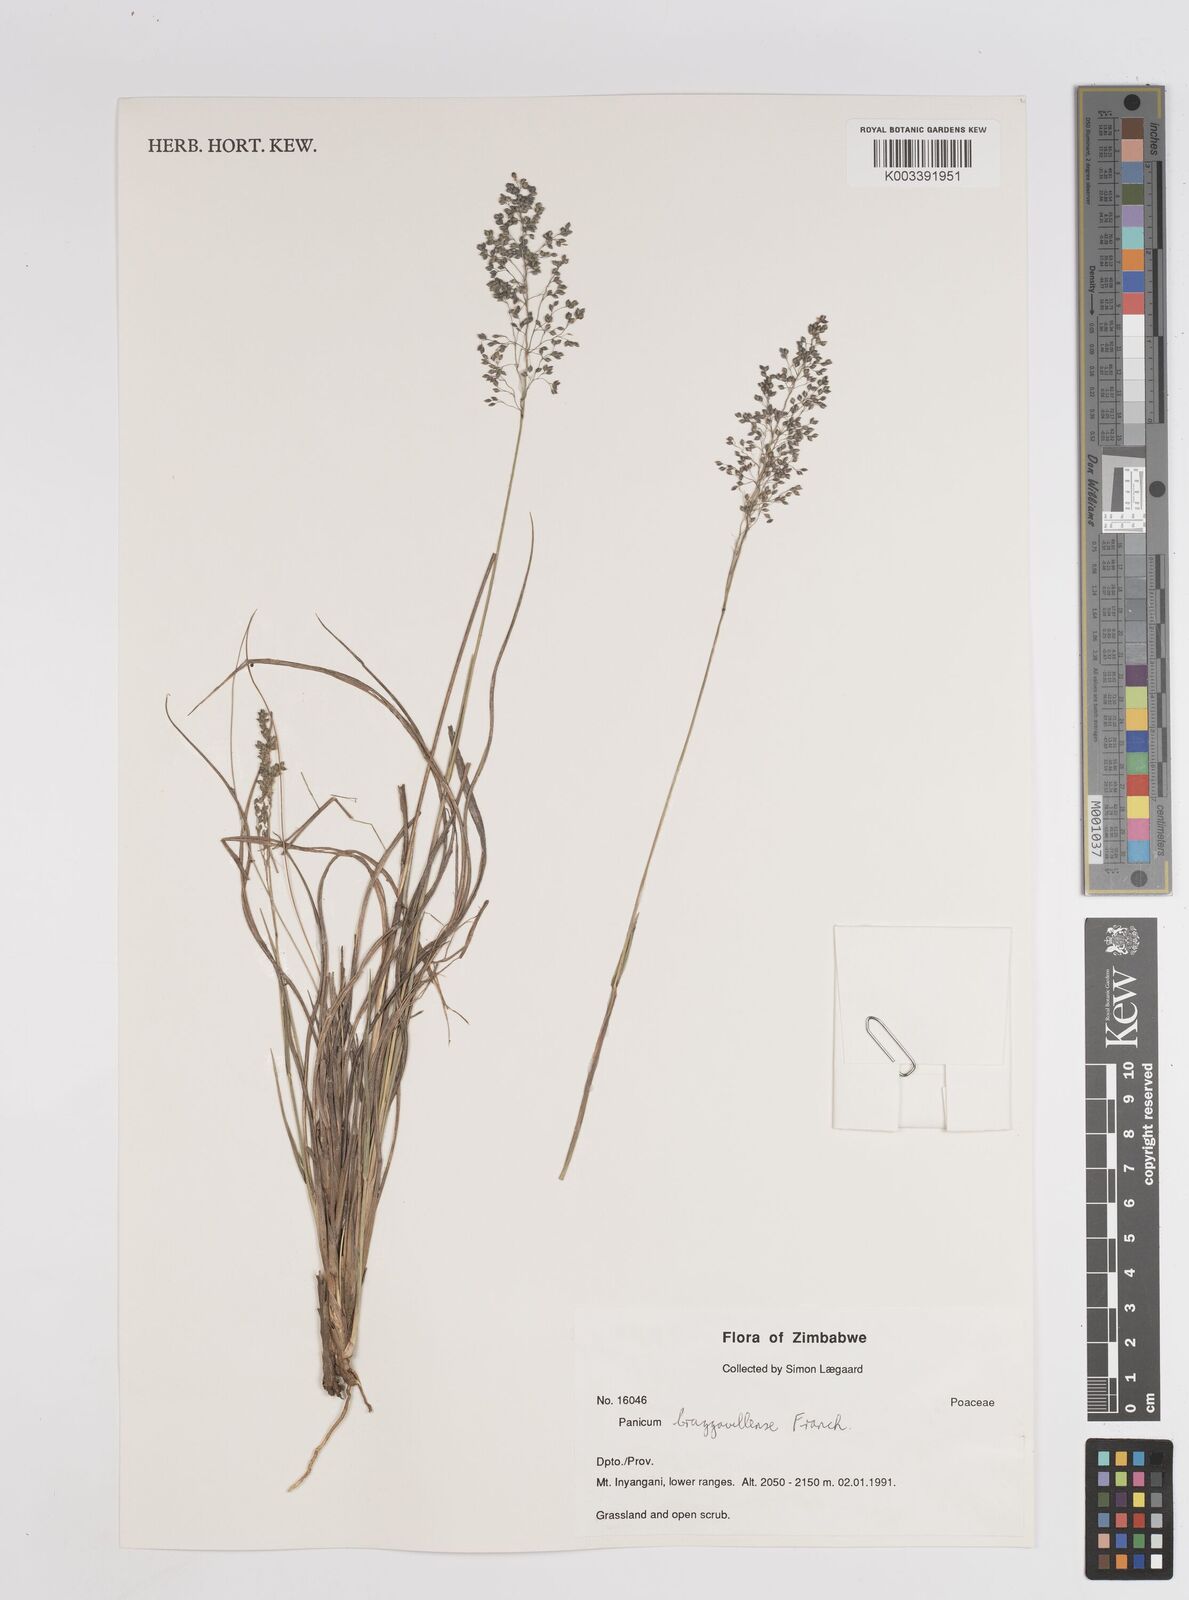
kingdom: Plantae
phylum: Tracheophyta
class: Liliopsida
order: Poales
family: Poaceae
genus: Trichanthecium
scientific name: Trichanthecium brazzavillense
